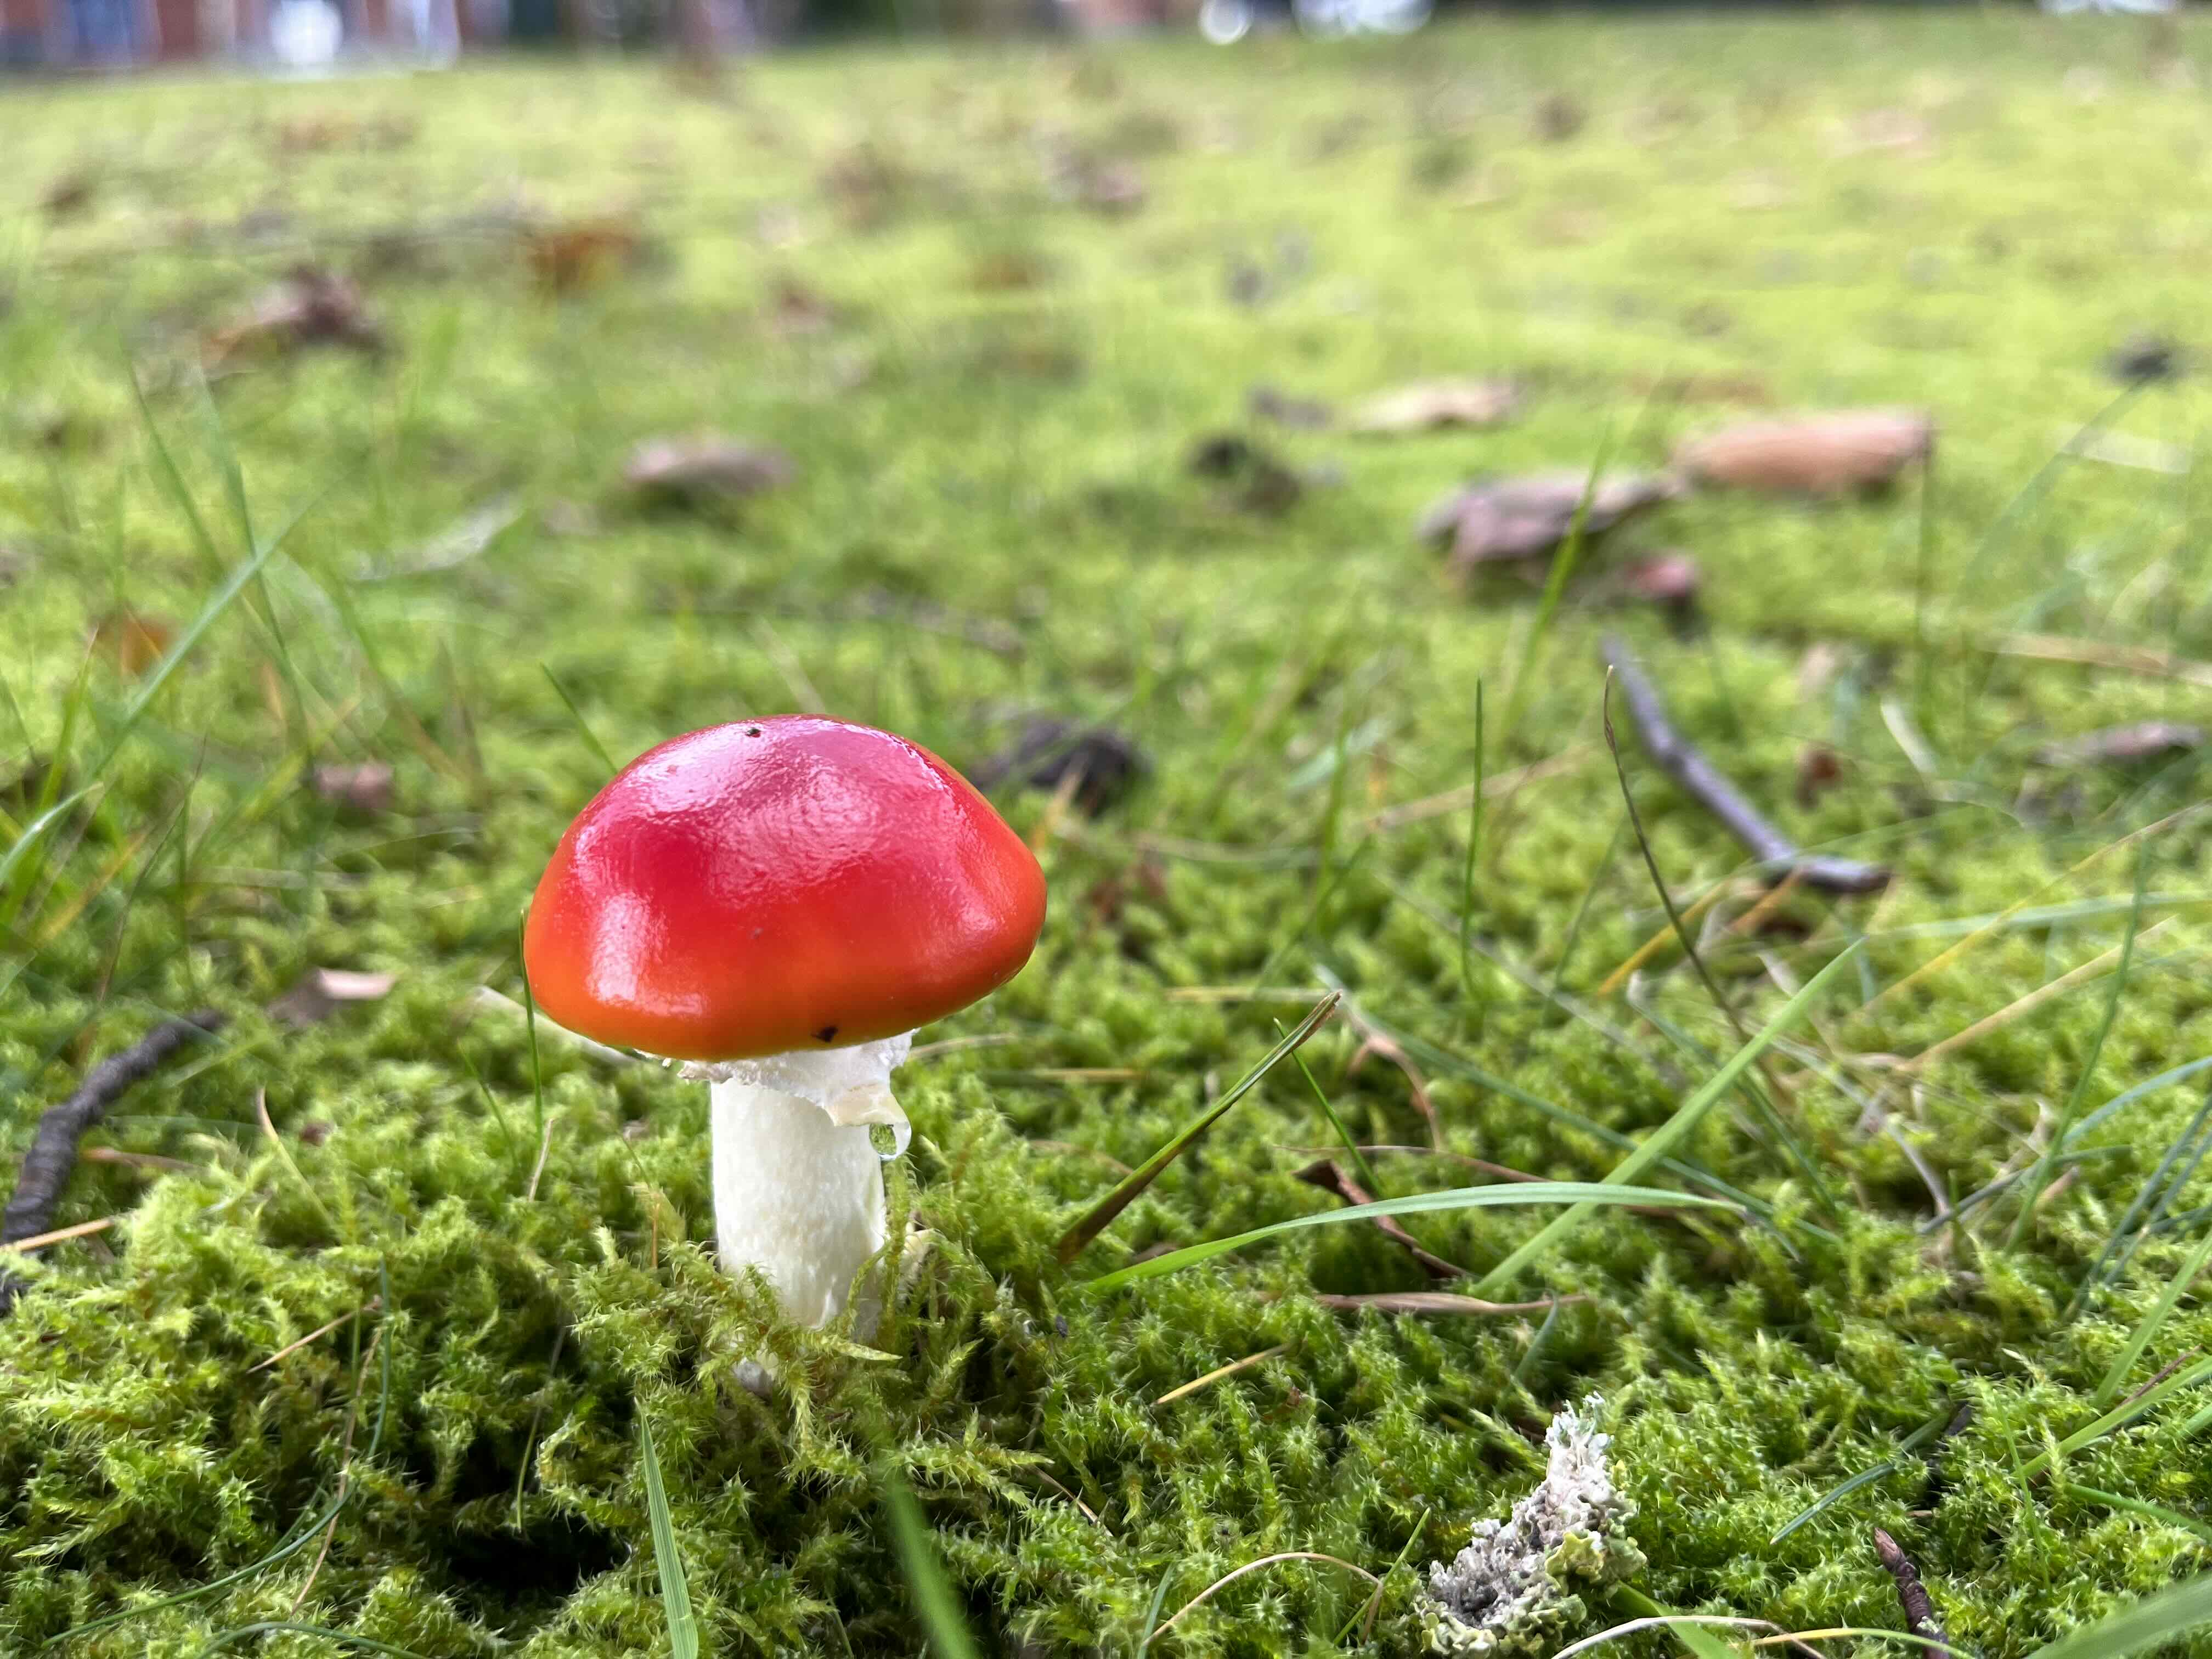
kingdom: Fungi
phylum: Basidiomycota
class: Agaricomycetes
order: Agaricales
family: Amanitaceae
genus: Amanita
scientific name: Amanita muscaria
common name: rød fluesvamp
